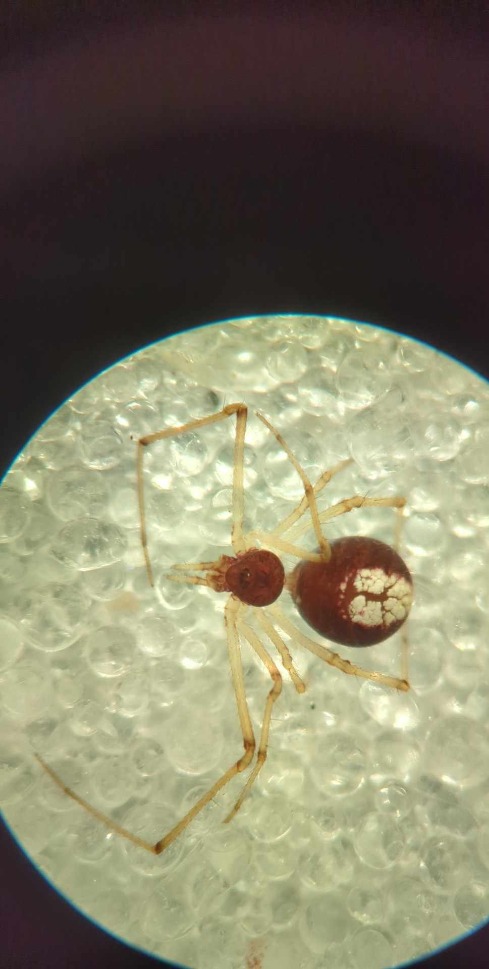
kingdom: Animalia
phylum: Arthropoda
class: Arachnida
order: Araneae
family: Theridiidae
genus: Neottiura
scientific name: Neottiura bimaculata
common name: Æggebæreren
